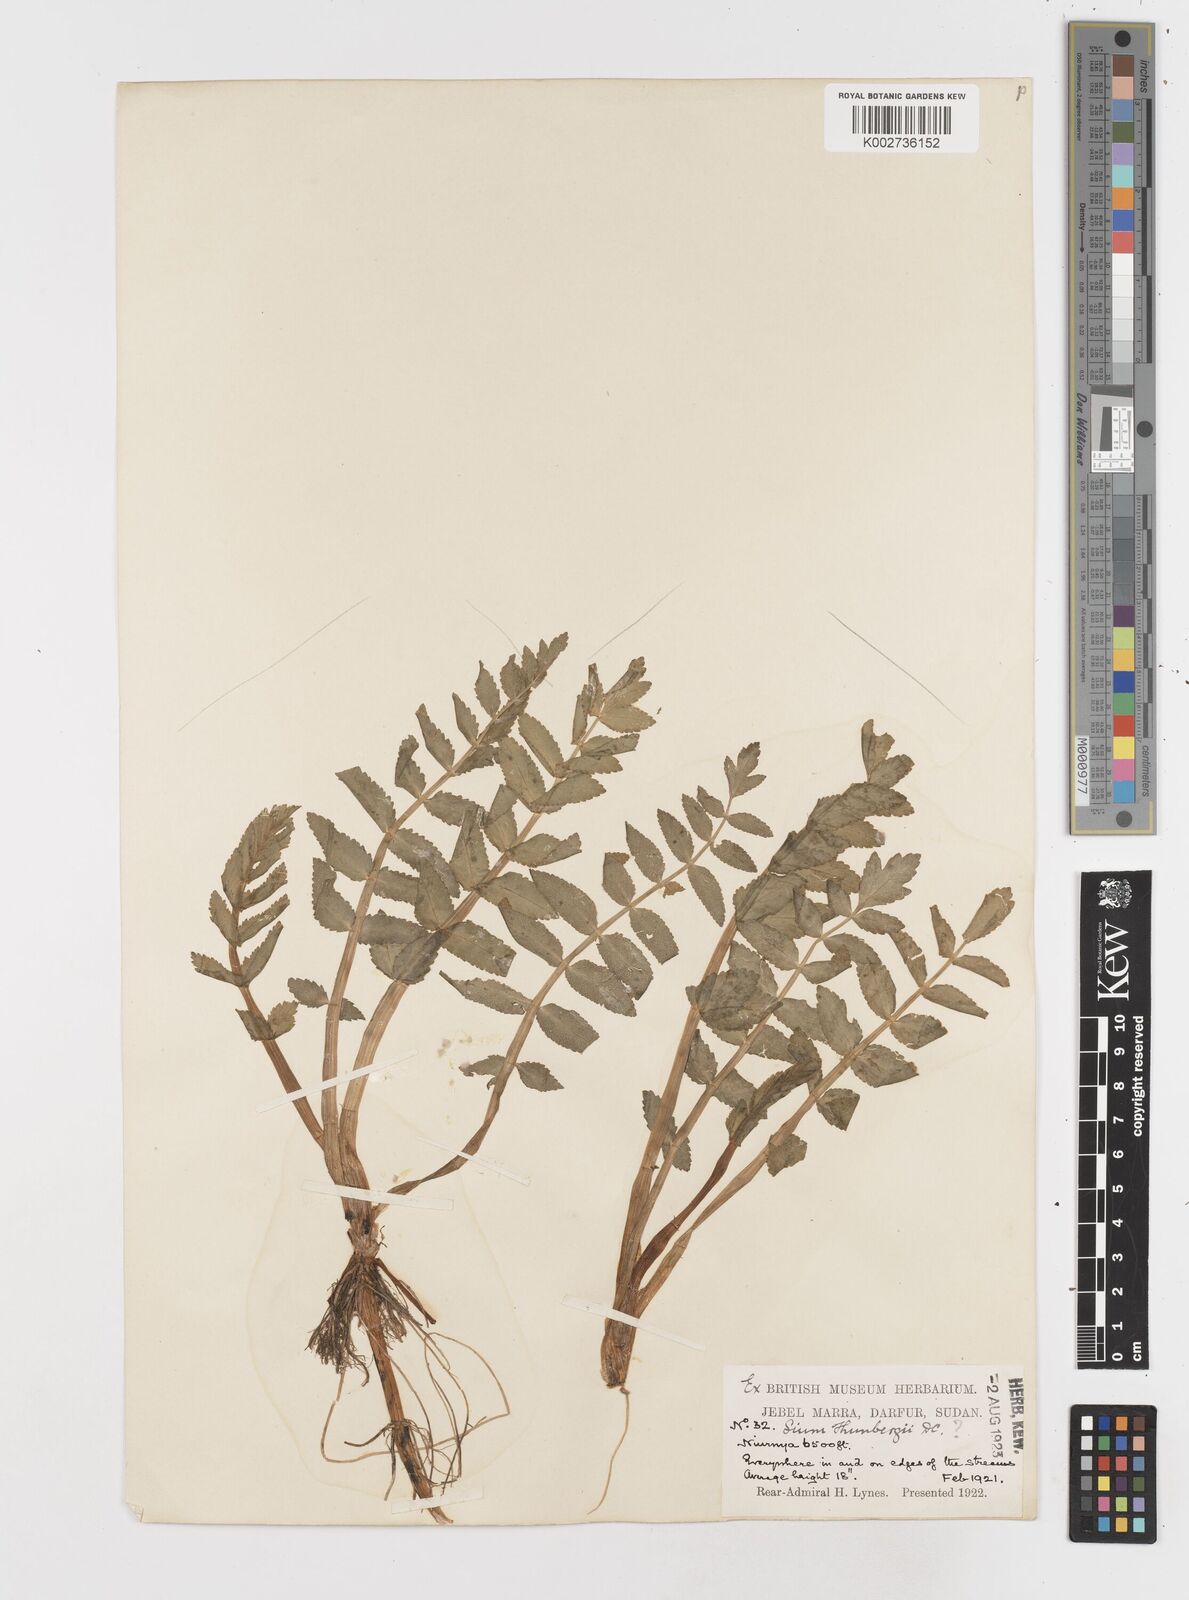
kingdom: Plantae
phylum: Tracheophyta
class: Magnoliopsida
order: Apiales
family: Apiaceae
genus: Berula
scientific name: Berula erecta
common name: Lesser water-parsnip
